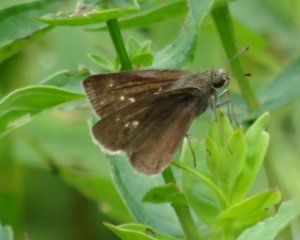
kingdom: Animalia
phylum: Arthropoda
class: Insecta
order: Lepidoptera
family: Hesperiidae
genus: Polites
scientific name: Polites egeremet
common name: Northern Broken-Dash
